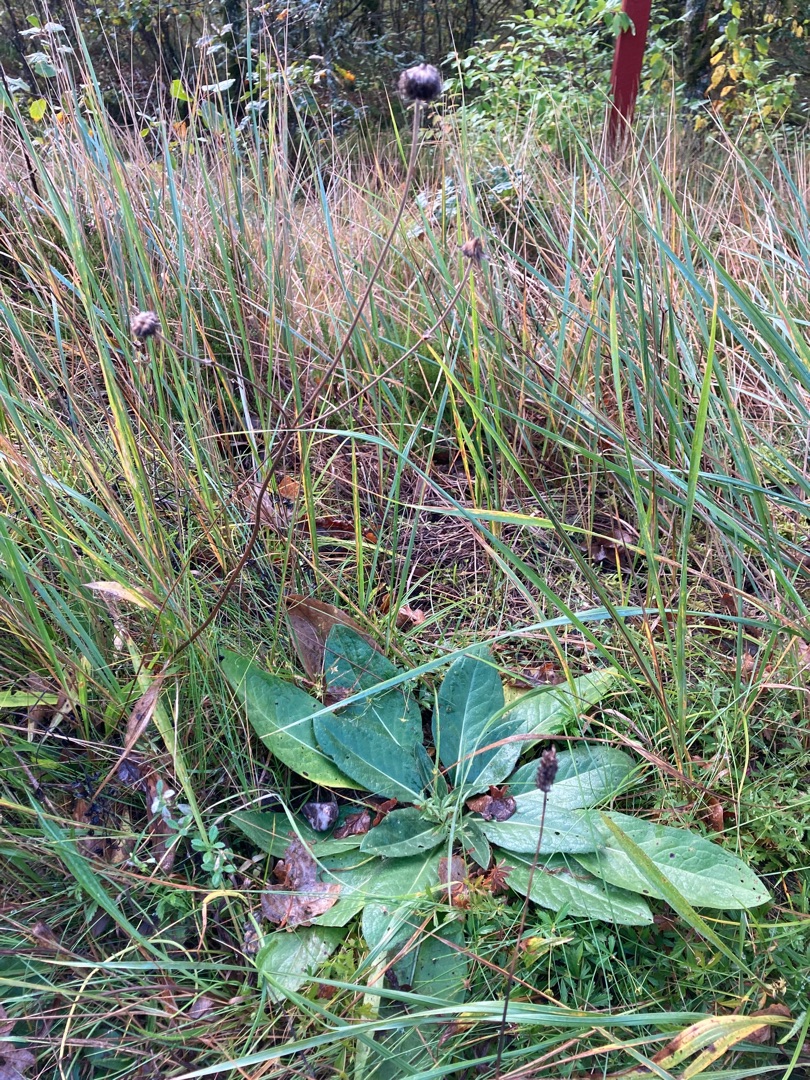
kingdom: Plantae
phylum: Tracheophyta
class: Magnoliopsida
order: Dipsacales
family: Caprifoliaceae
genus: Succisa
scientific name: Succisa pratensis
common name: Djævelsbid
